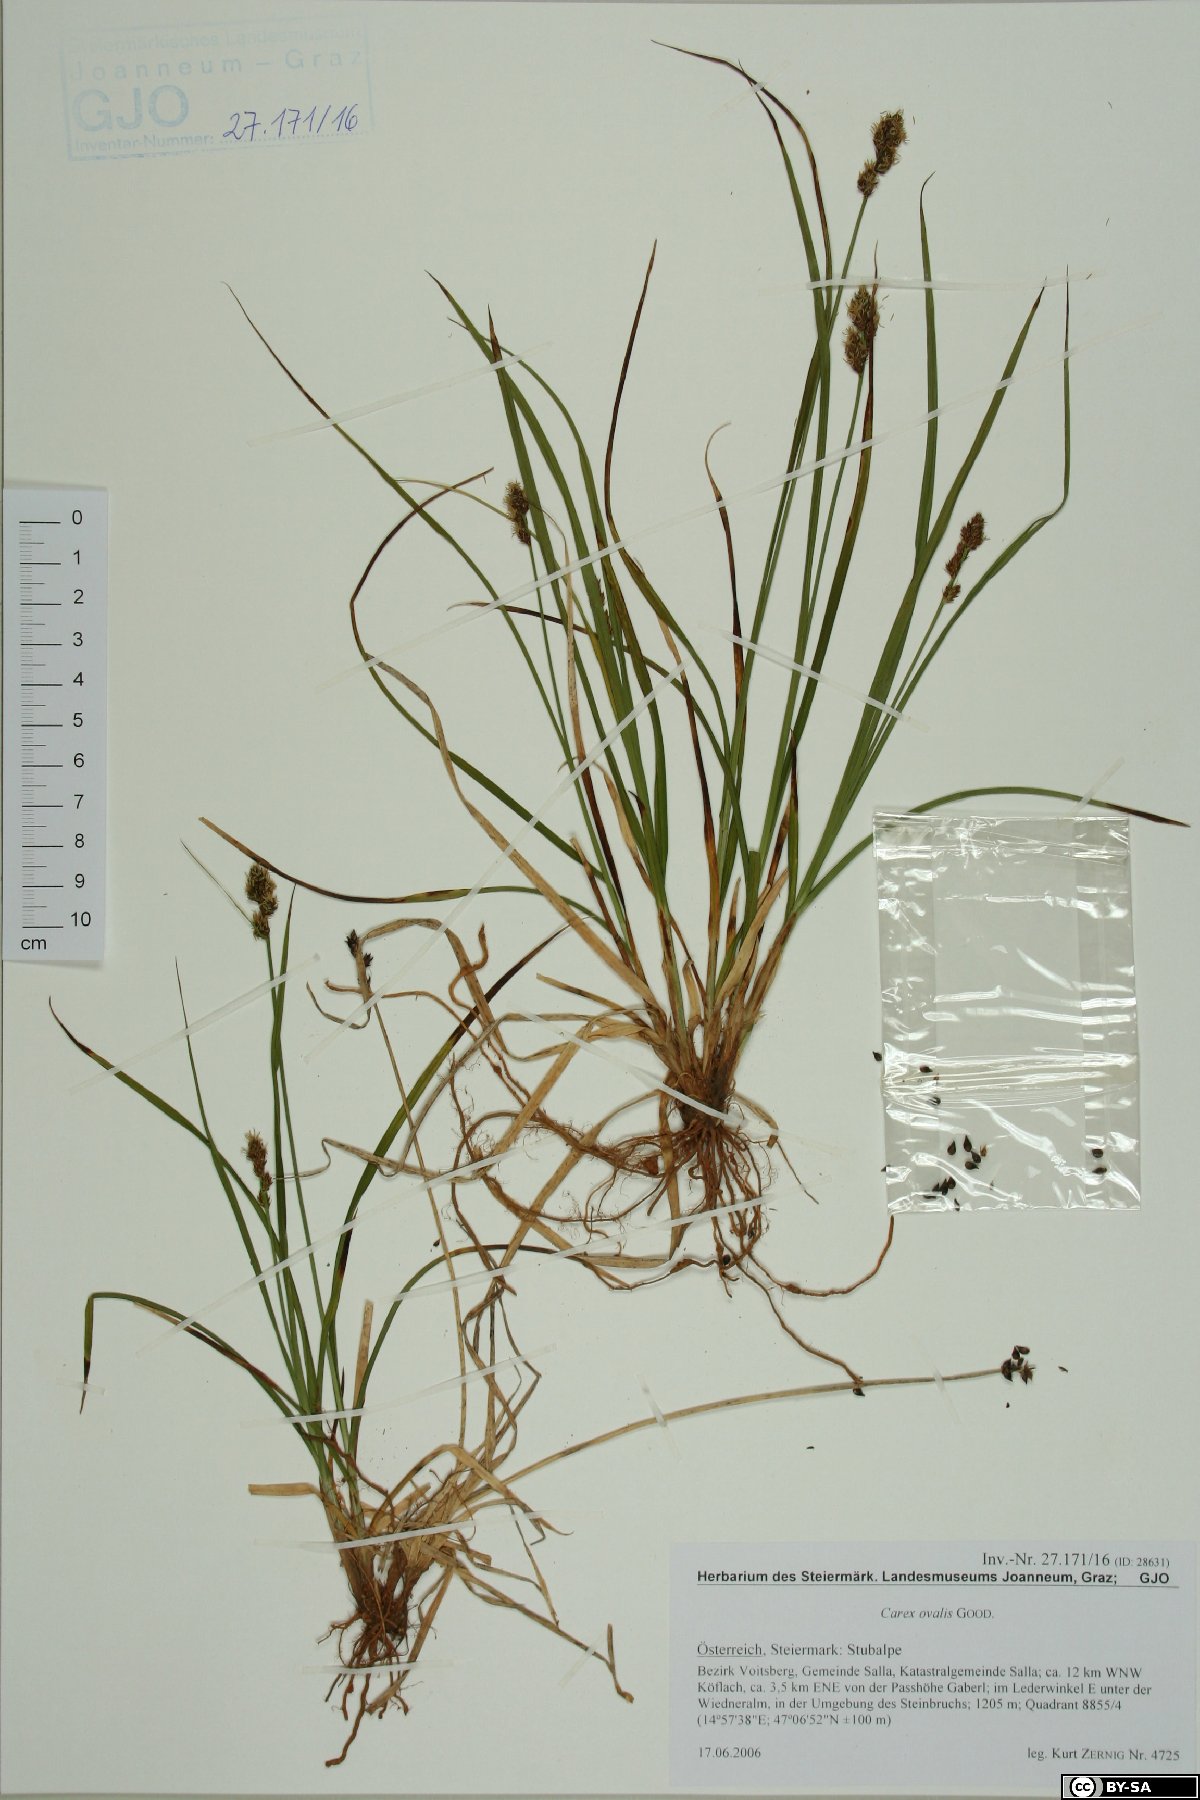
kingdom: Plantae
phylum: Tracheophyta
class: Liliopsida
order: Poales
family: Cyperaceae
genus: Carex
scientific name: Carex leporina
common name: Oval sedge
